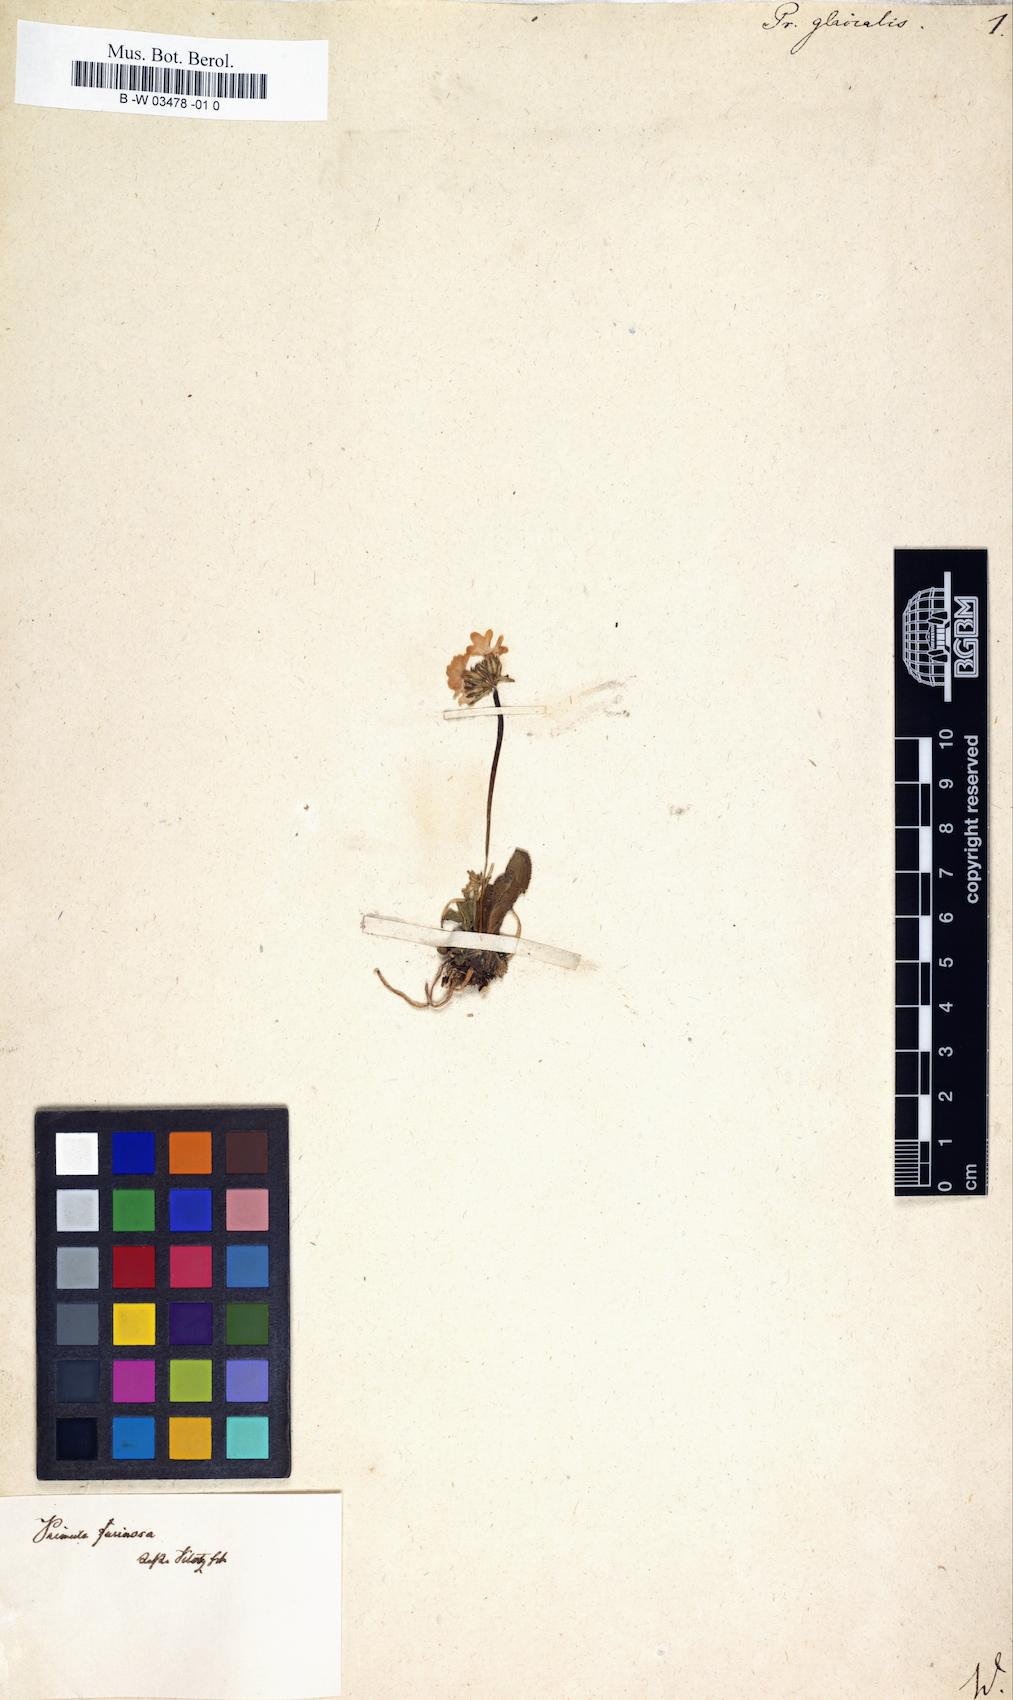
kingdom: Plantae
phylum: Tracheophyta
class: Magnoliopsida
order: Ericales
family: Primulaceae
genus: Primula
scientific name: Primula diantha
